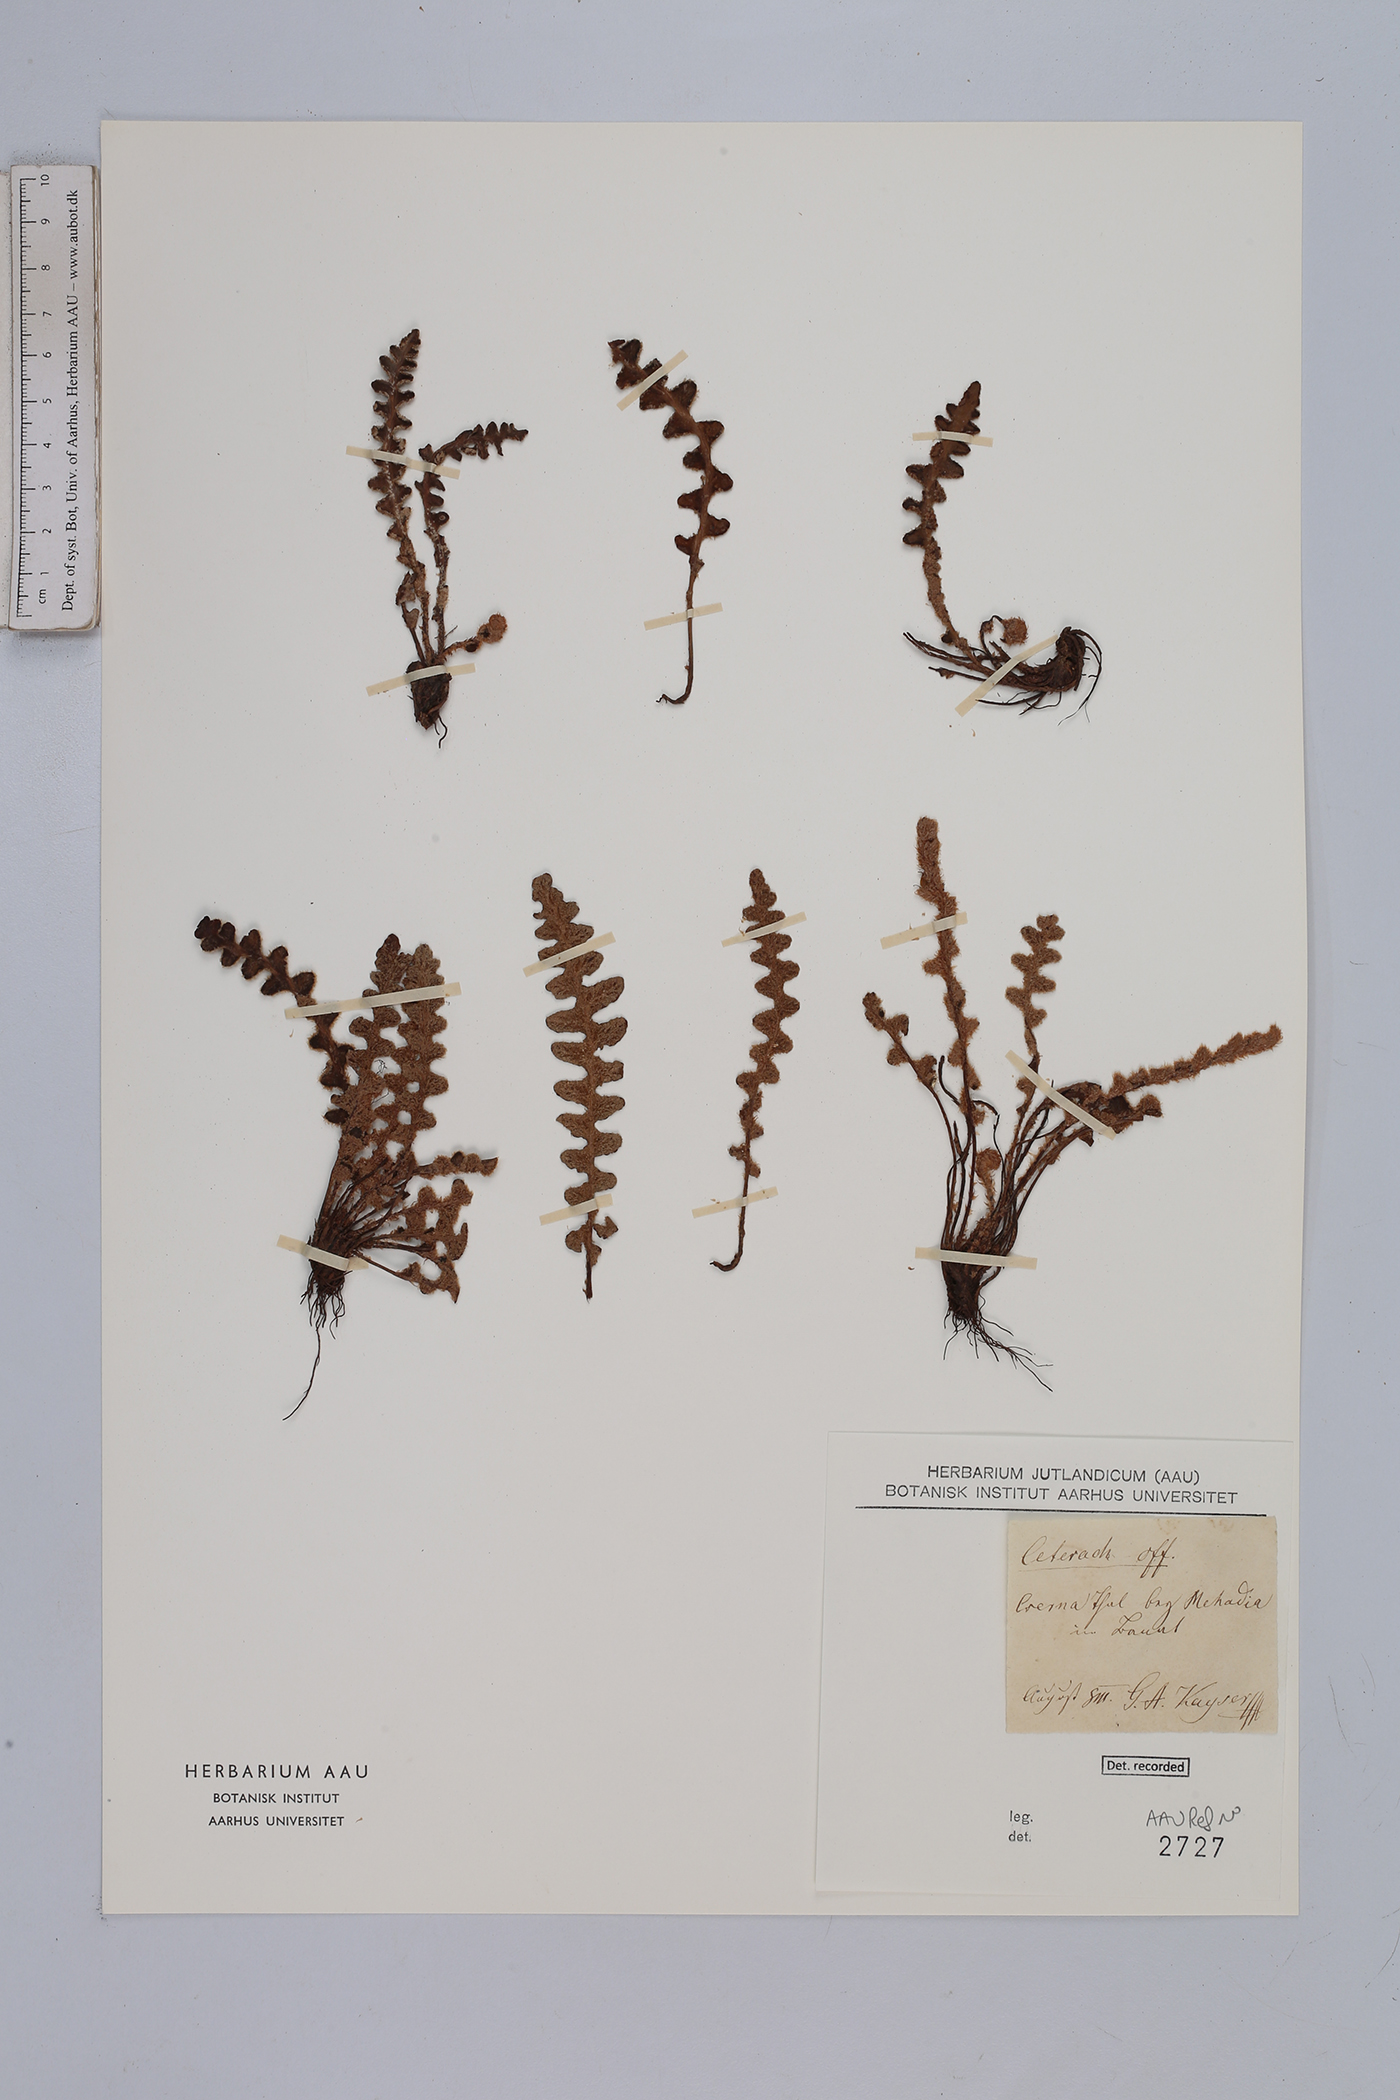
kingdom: Plantae
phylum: Tracheophyta
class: Polypodiopsida
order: Polypodiales
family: Aspleniaceae
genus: Asplenium
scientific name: Asplenium ceterach
